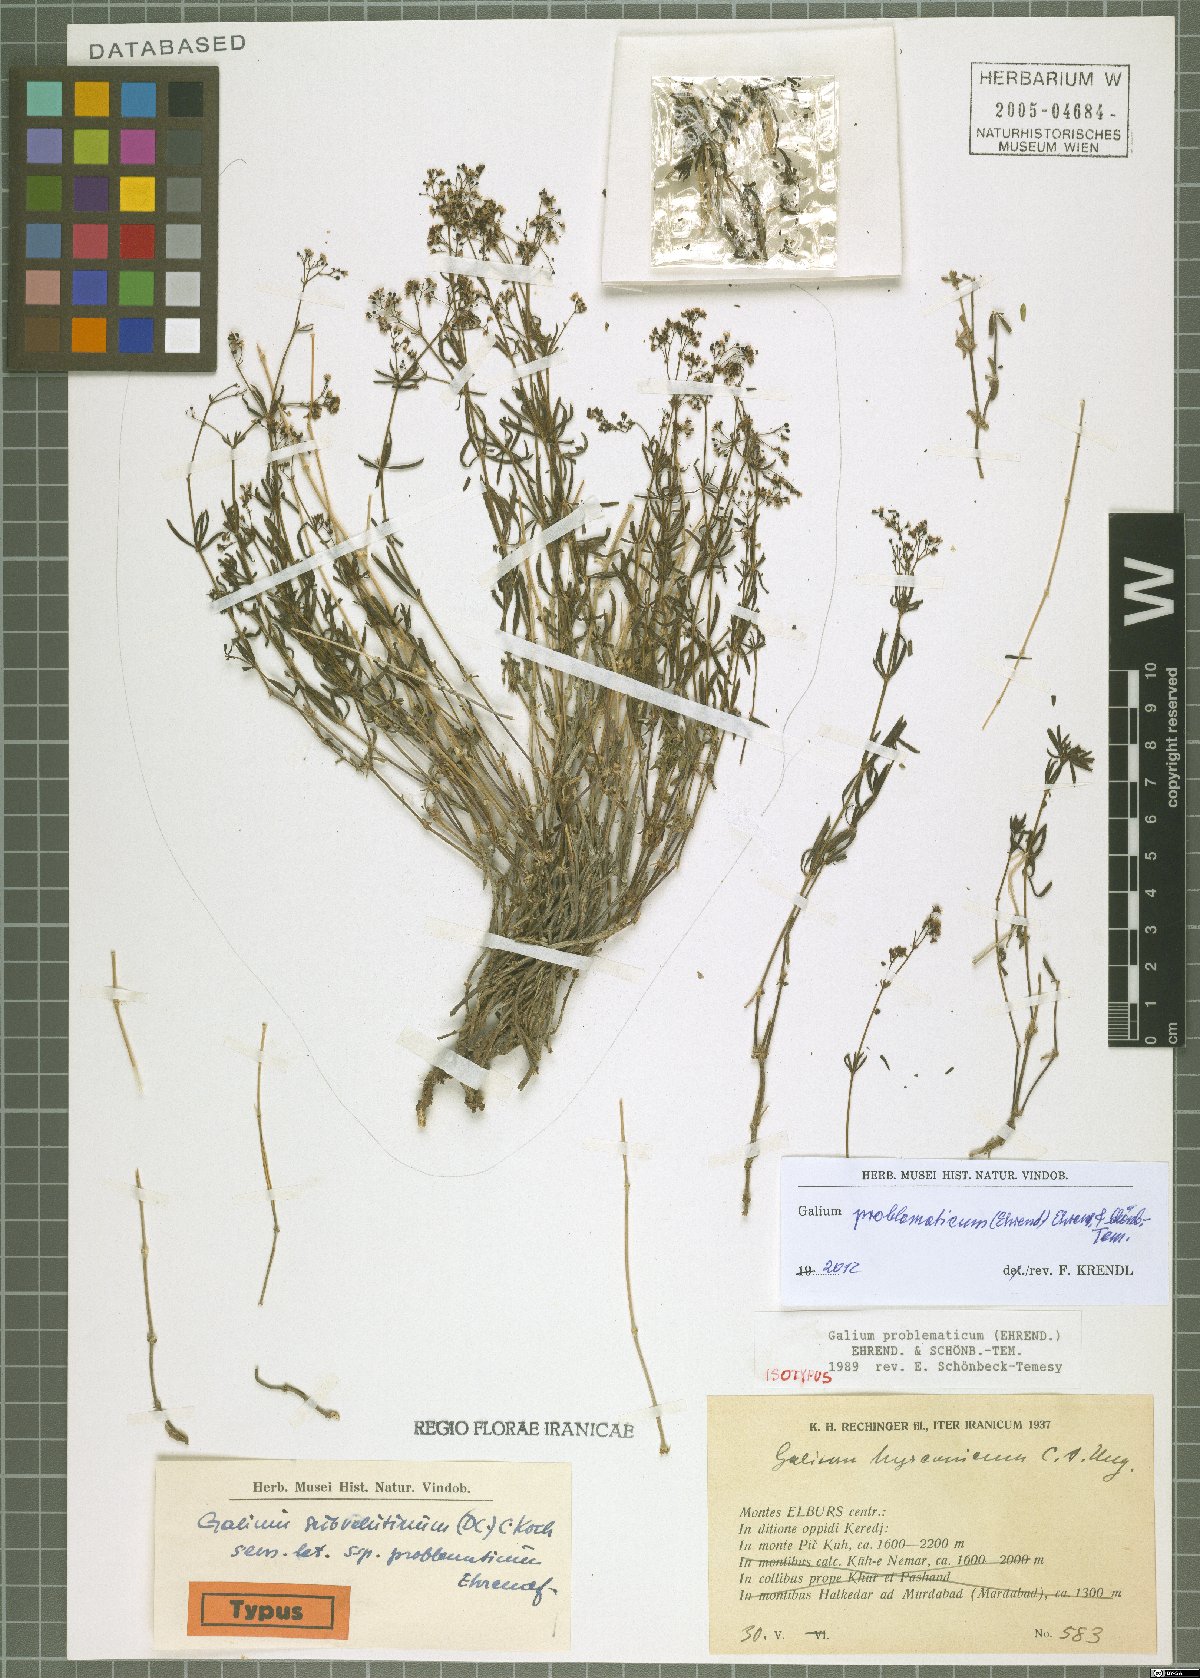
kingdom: Plantae
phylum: Tracheophyta
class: Magnoliopsida
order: Gentianales
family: Rubiaceae
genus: Galium
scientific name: Galium problematicum
